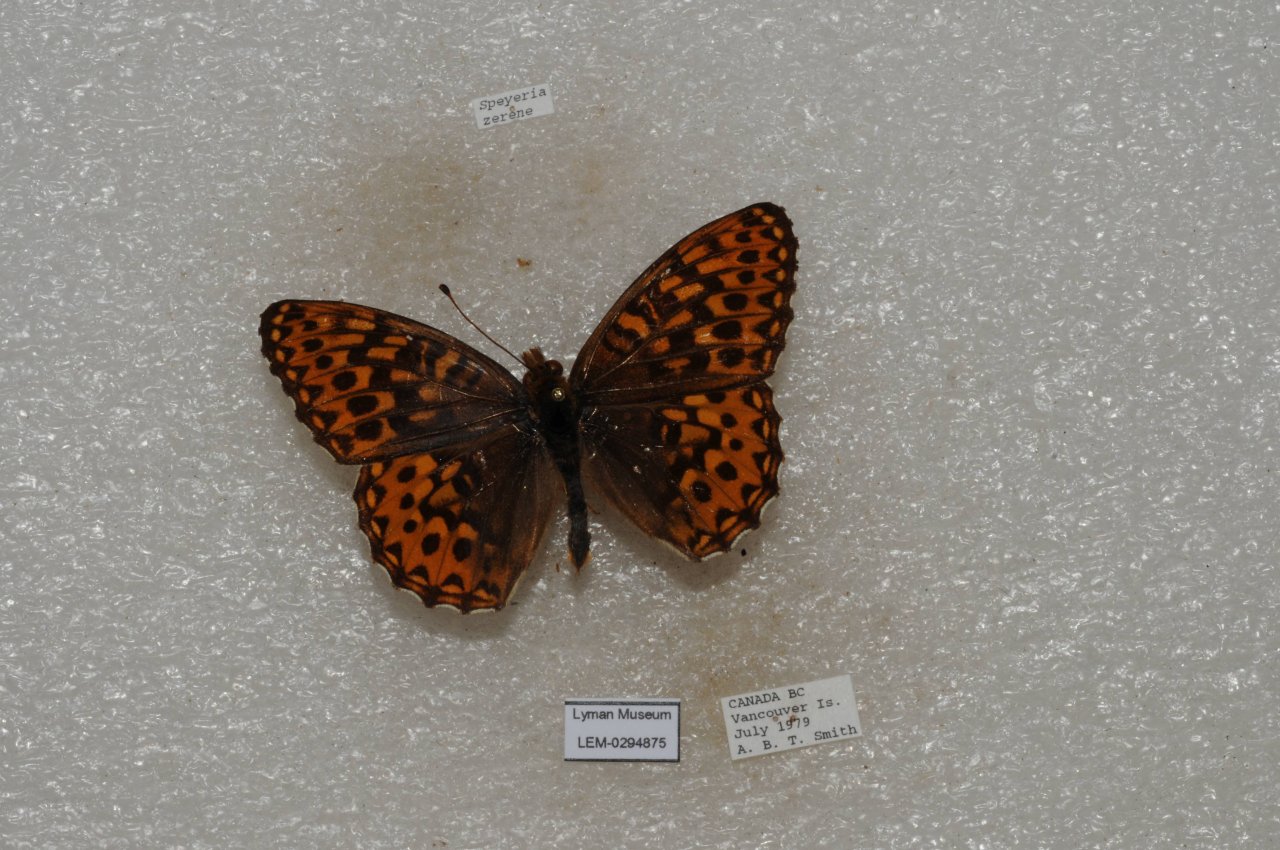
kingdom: Animalia
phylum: Arthropoda
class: Insecta
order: Lepidoptera
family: Nymphalidae
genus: Speyeria
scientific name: Speyeria zerene
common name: Zerene Fritillary
